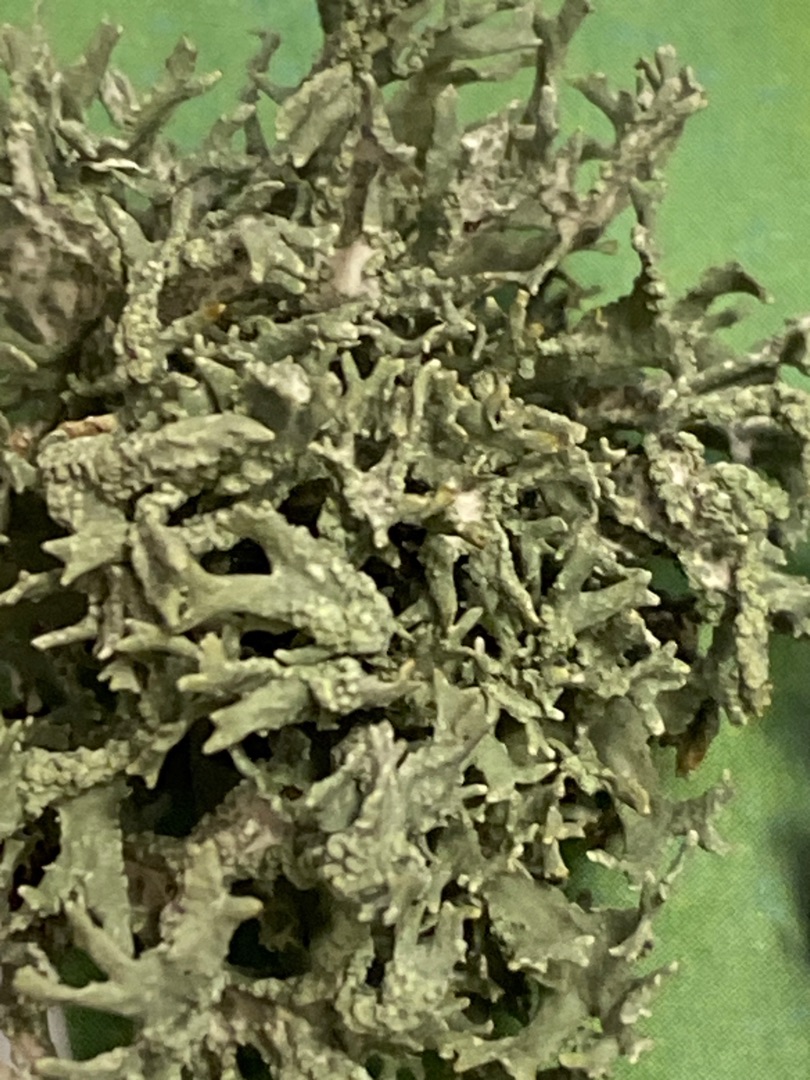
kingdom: Fungi
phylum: Ascomycota
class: Lecanoromycetes
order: Lecanorales
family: Parmeliaceae
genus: Evernia
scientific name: Evernia prunastri
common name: Almindelig slåenlav
